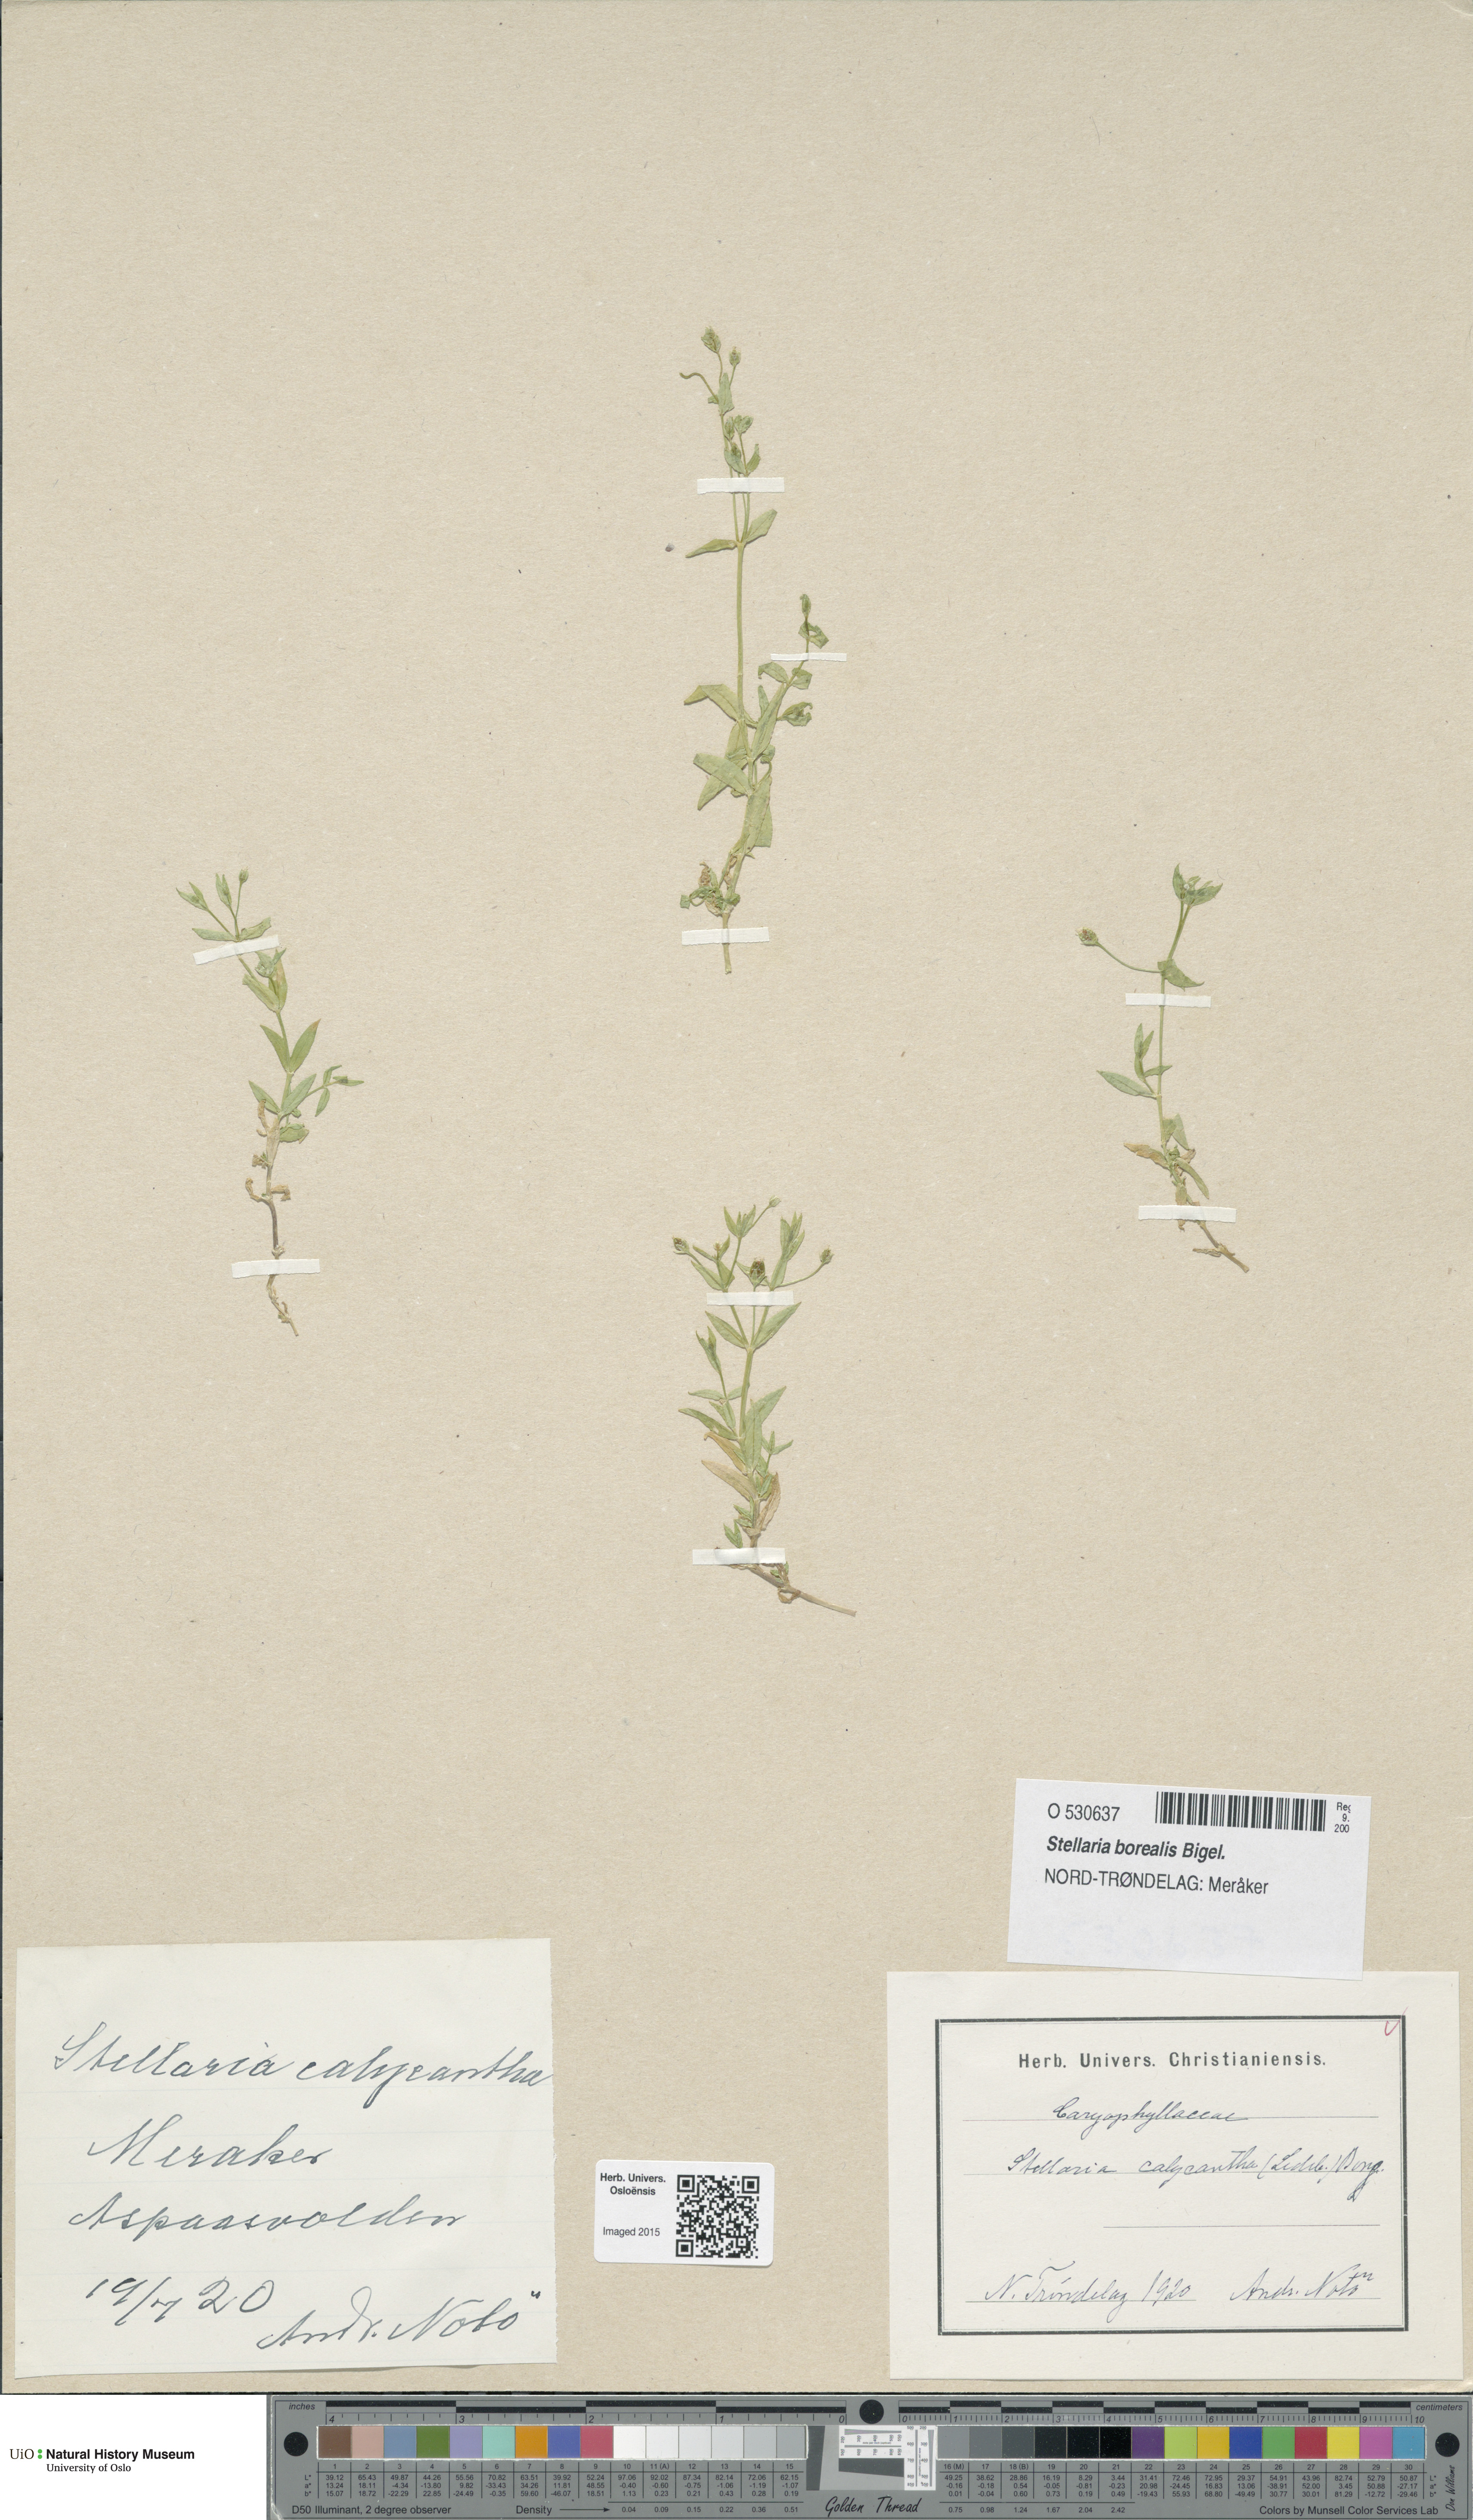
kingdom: Plantae
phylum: Tracheophyta
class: Magnoliopsida
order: Caryophyllales
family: Caryophyllaceae
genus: Stellaria
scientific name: Stellaria borealis
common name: Boreal starwort
